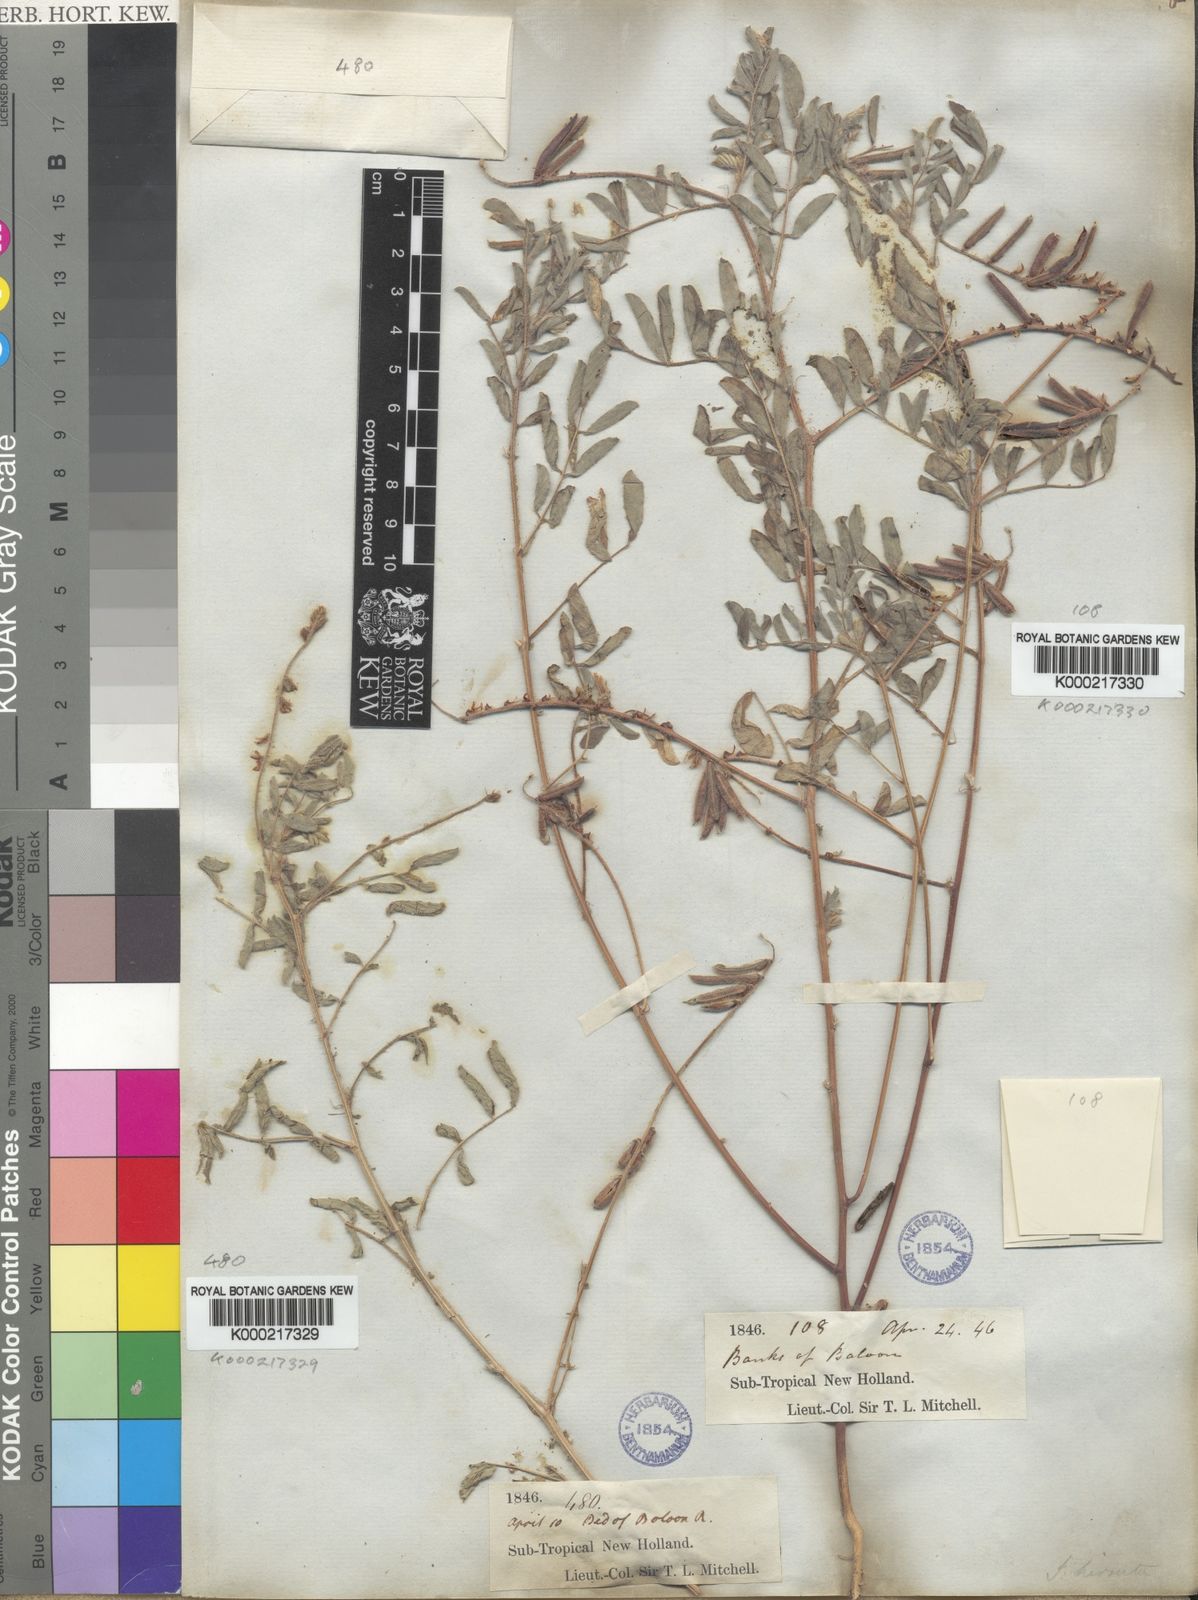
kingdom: Plantae
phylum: Tracheophyta
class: Magnoliopsida
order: Fabales
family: Fabaceae
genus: Indigofera
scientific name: Indigofera hirsuta
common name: Hairy indigo
